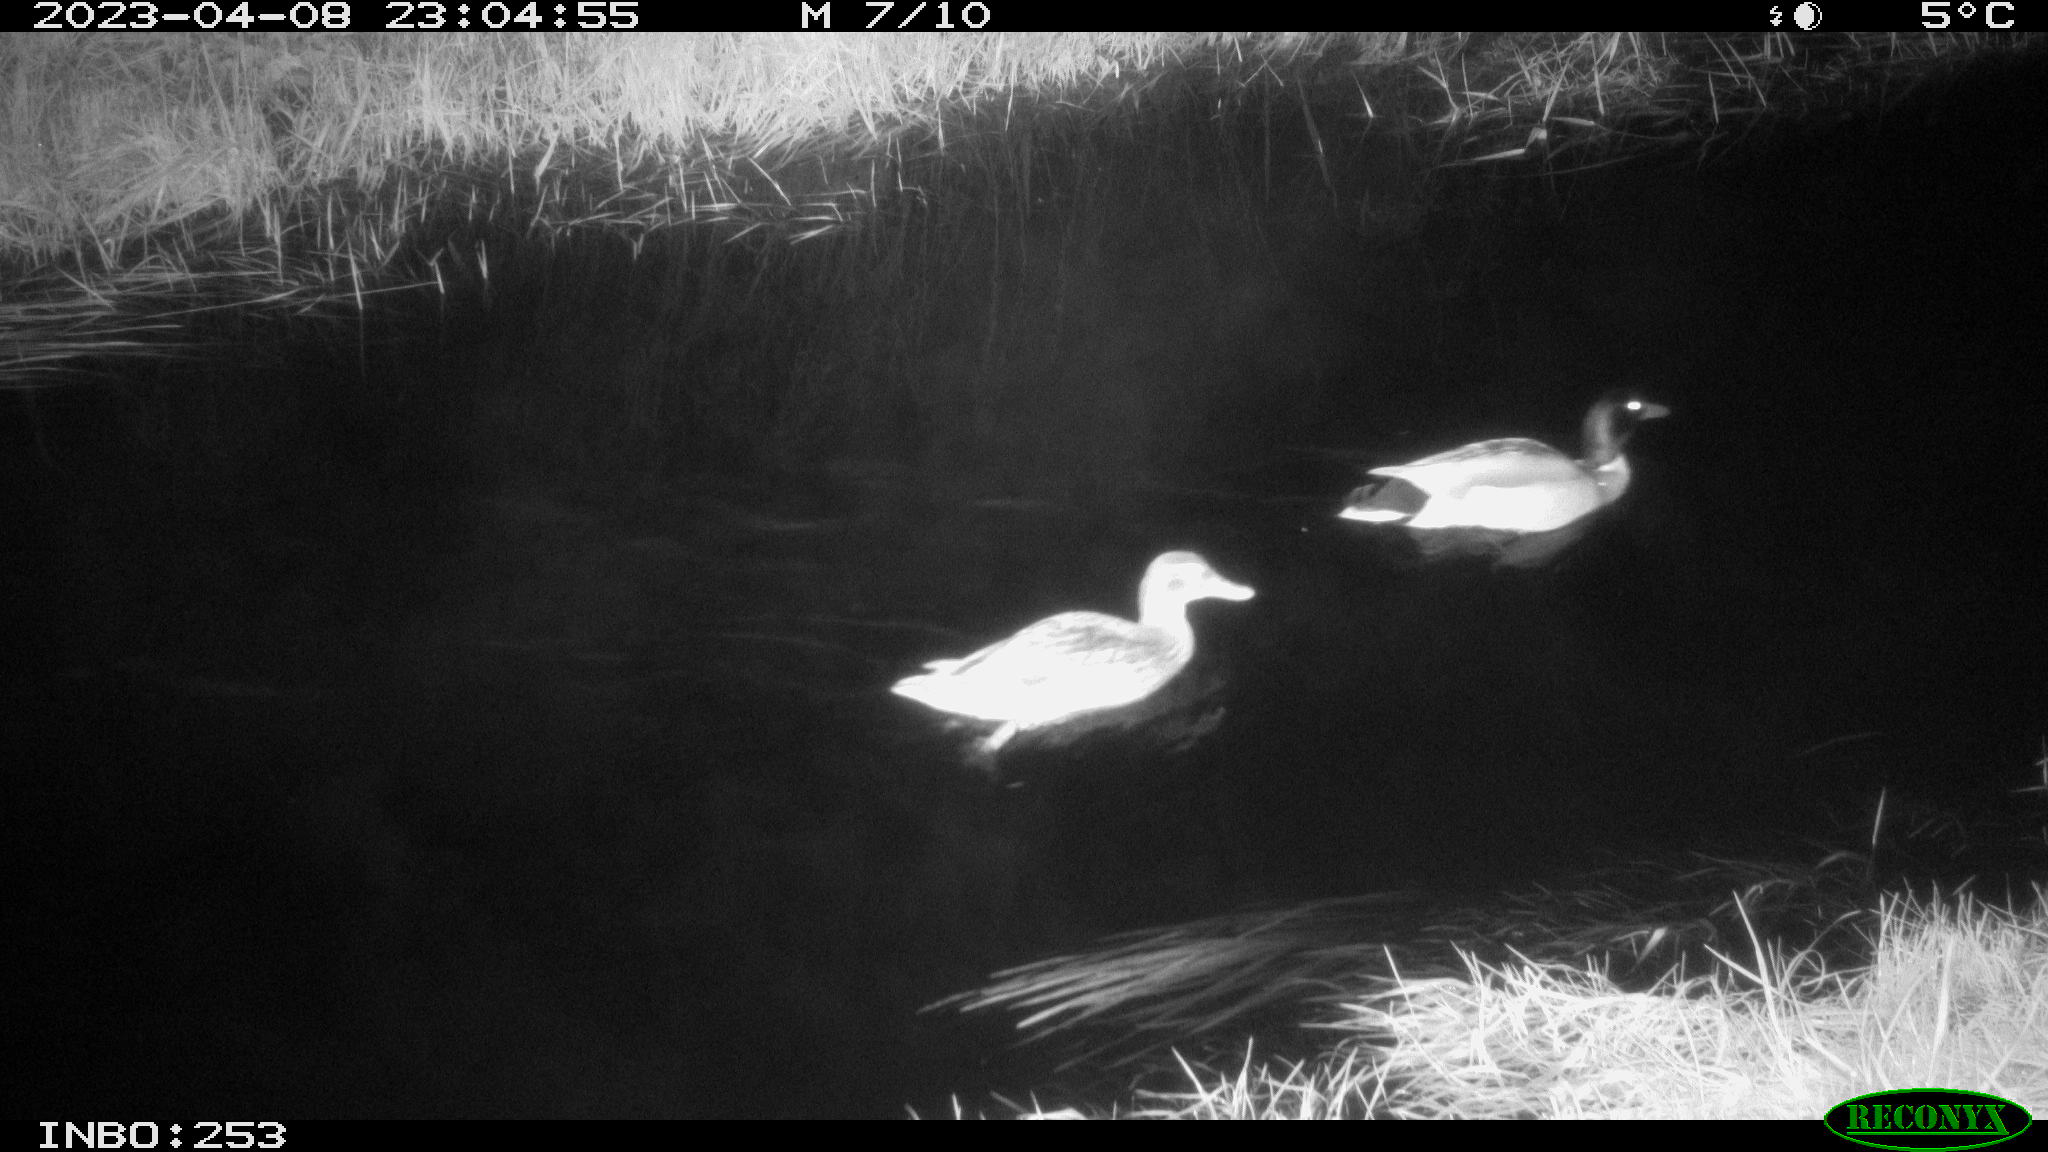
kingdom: Animalia
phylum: Chordata
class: Aves
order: Anseriformes
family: Anatidae
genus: Anas
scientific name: Anas
